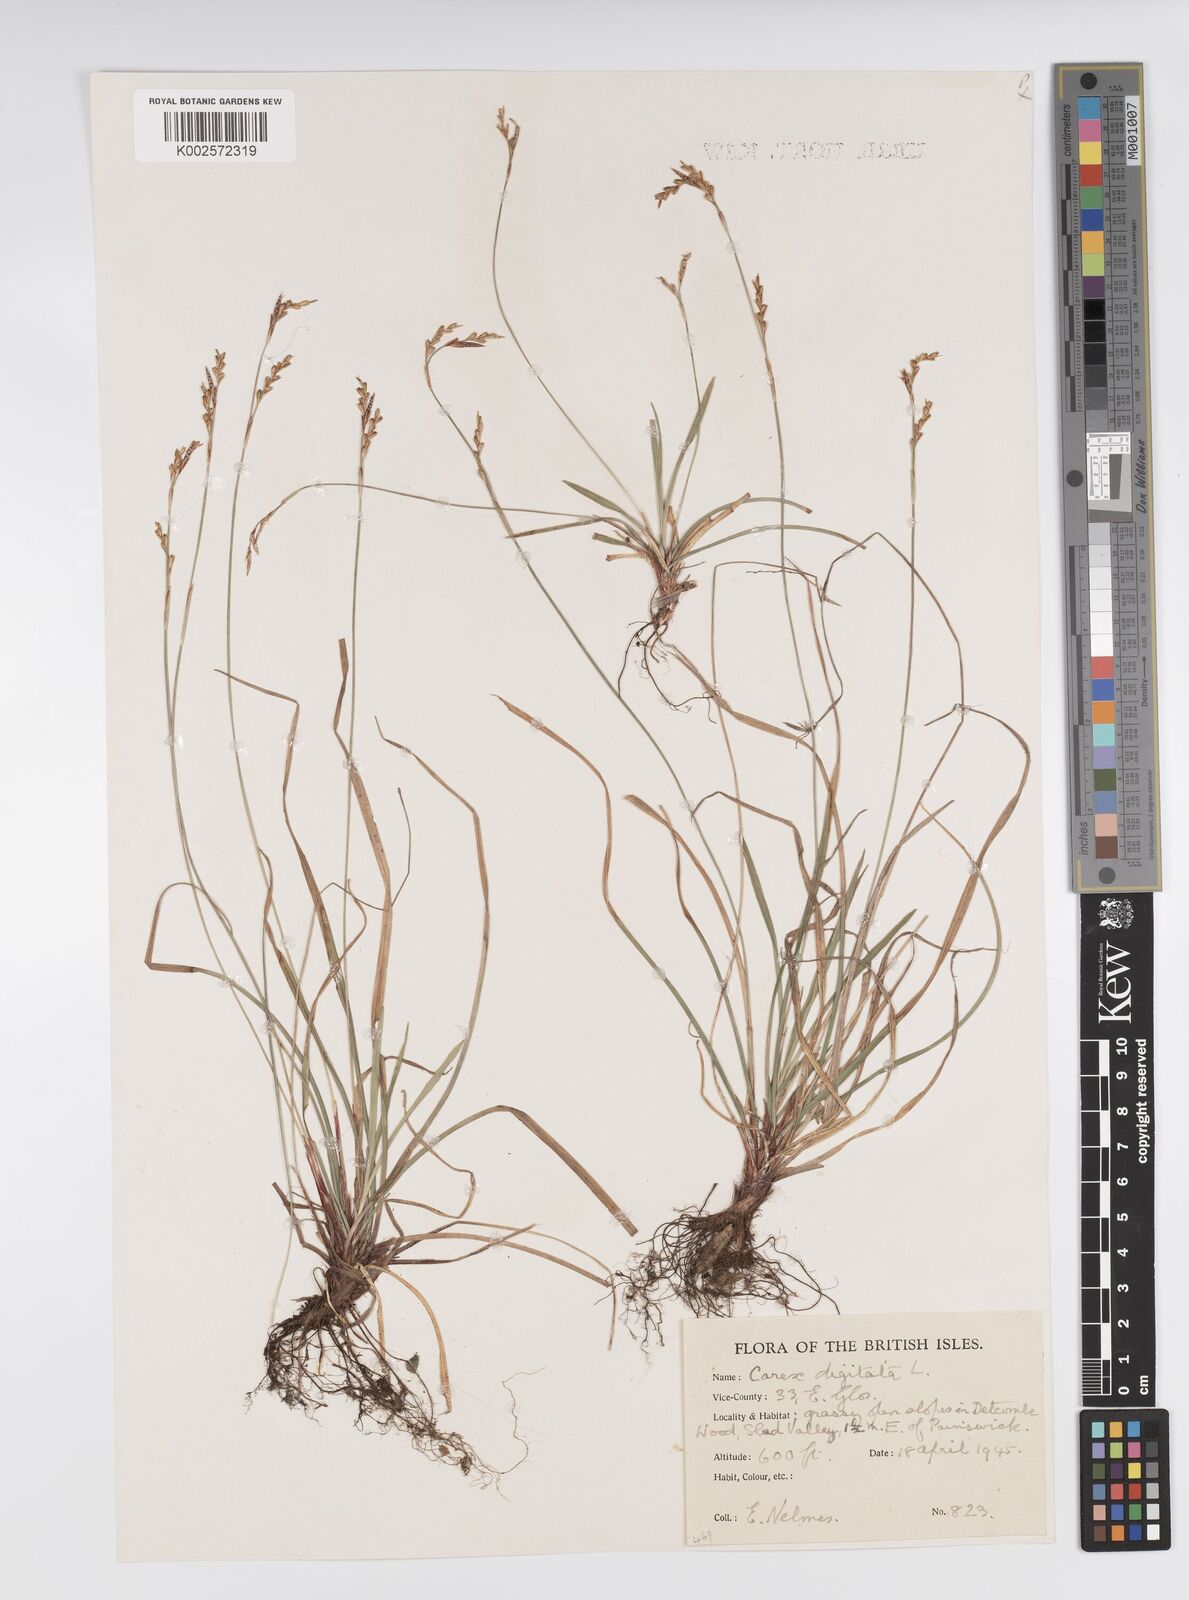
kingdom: Plantae
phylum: Tracheophyta
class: Liliopsida
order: Poales
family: Cyperaceae
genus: Carex
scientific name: Carex digitata
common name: Fingered sedge
